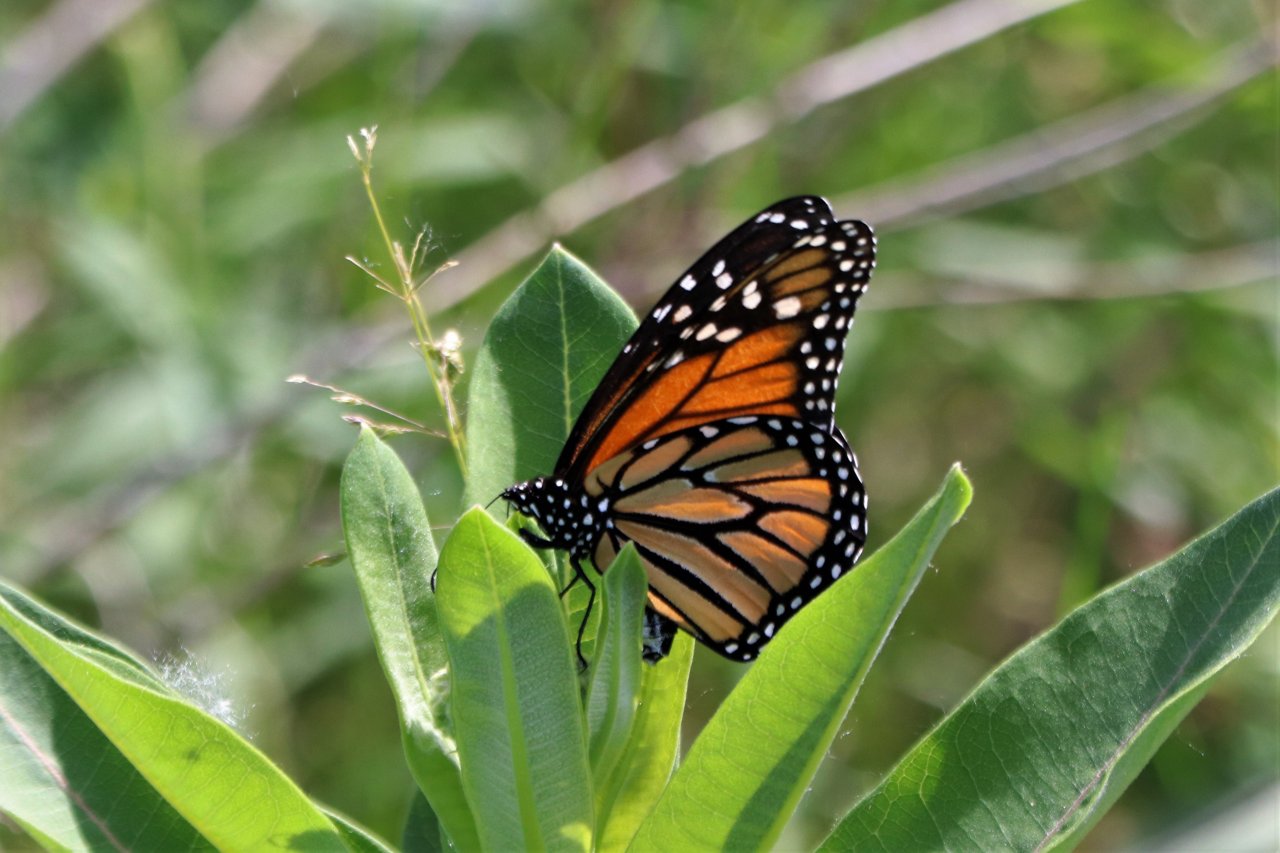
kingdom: Animalia
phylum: Arthropoda
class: Insecta
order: Lepidoptera
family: Nymphalidae
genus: Danaus
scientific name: Danaus plexippus
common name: Monarch
